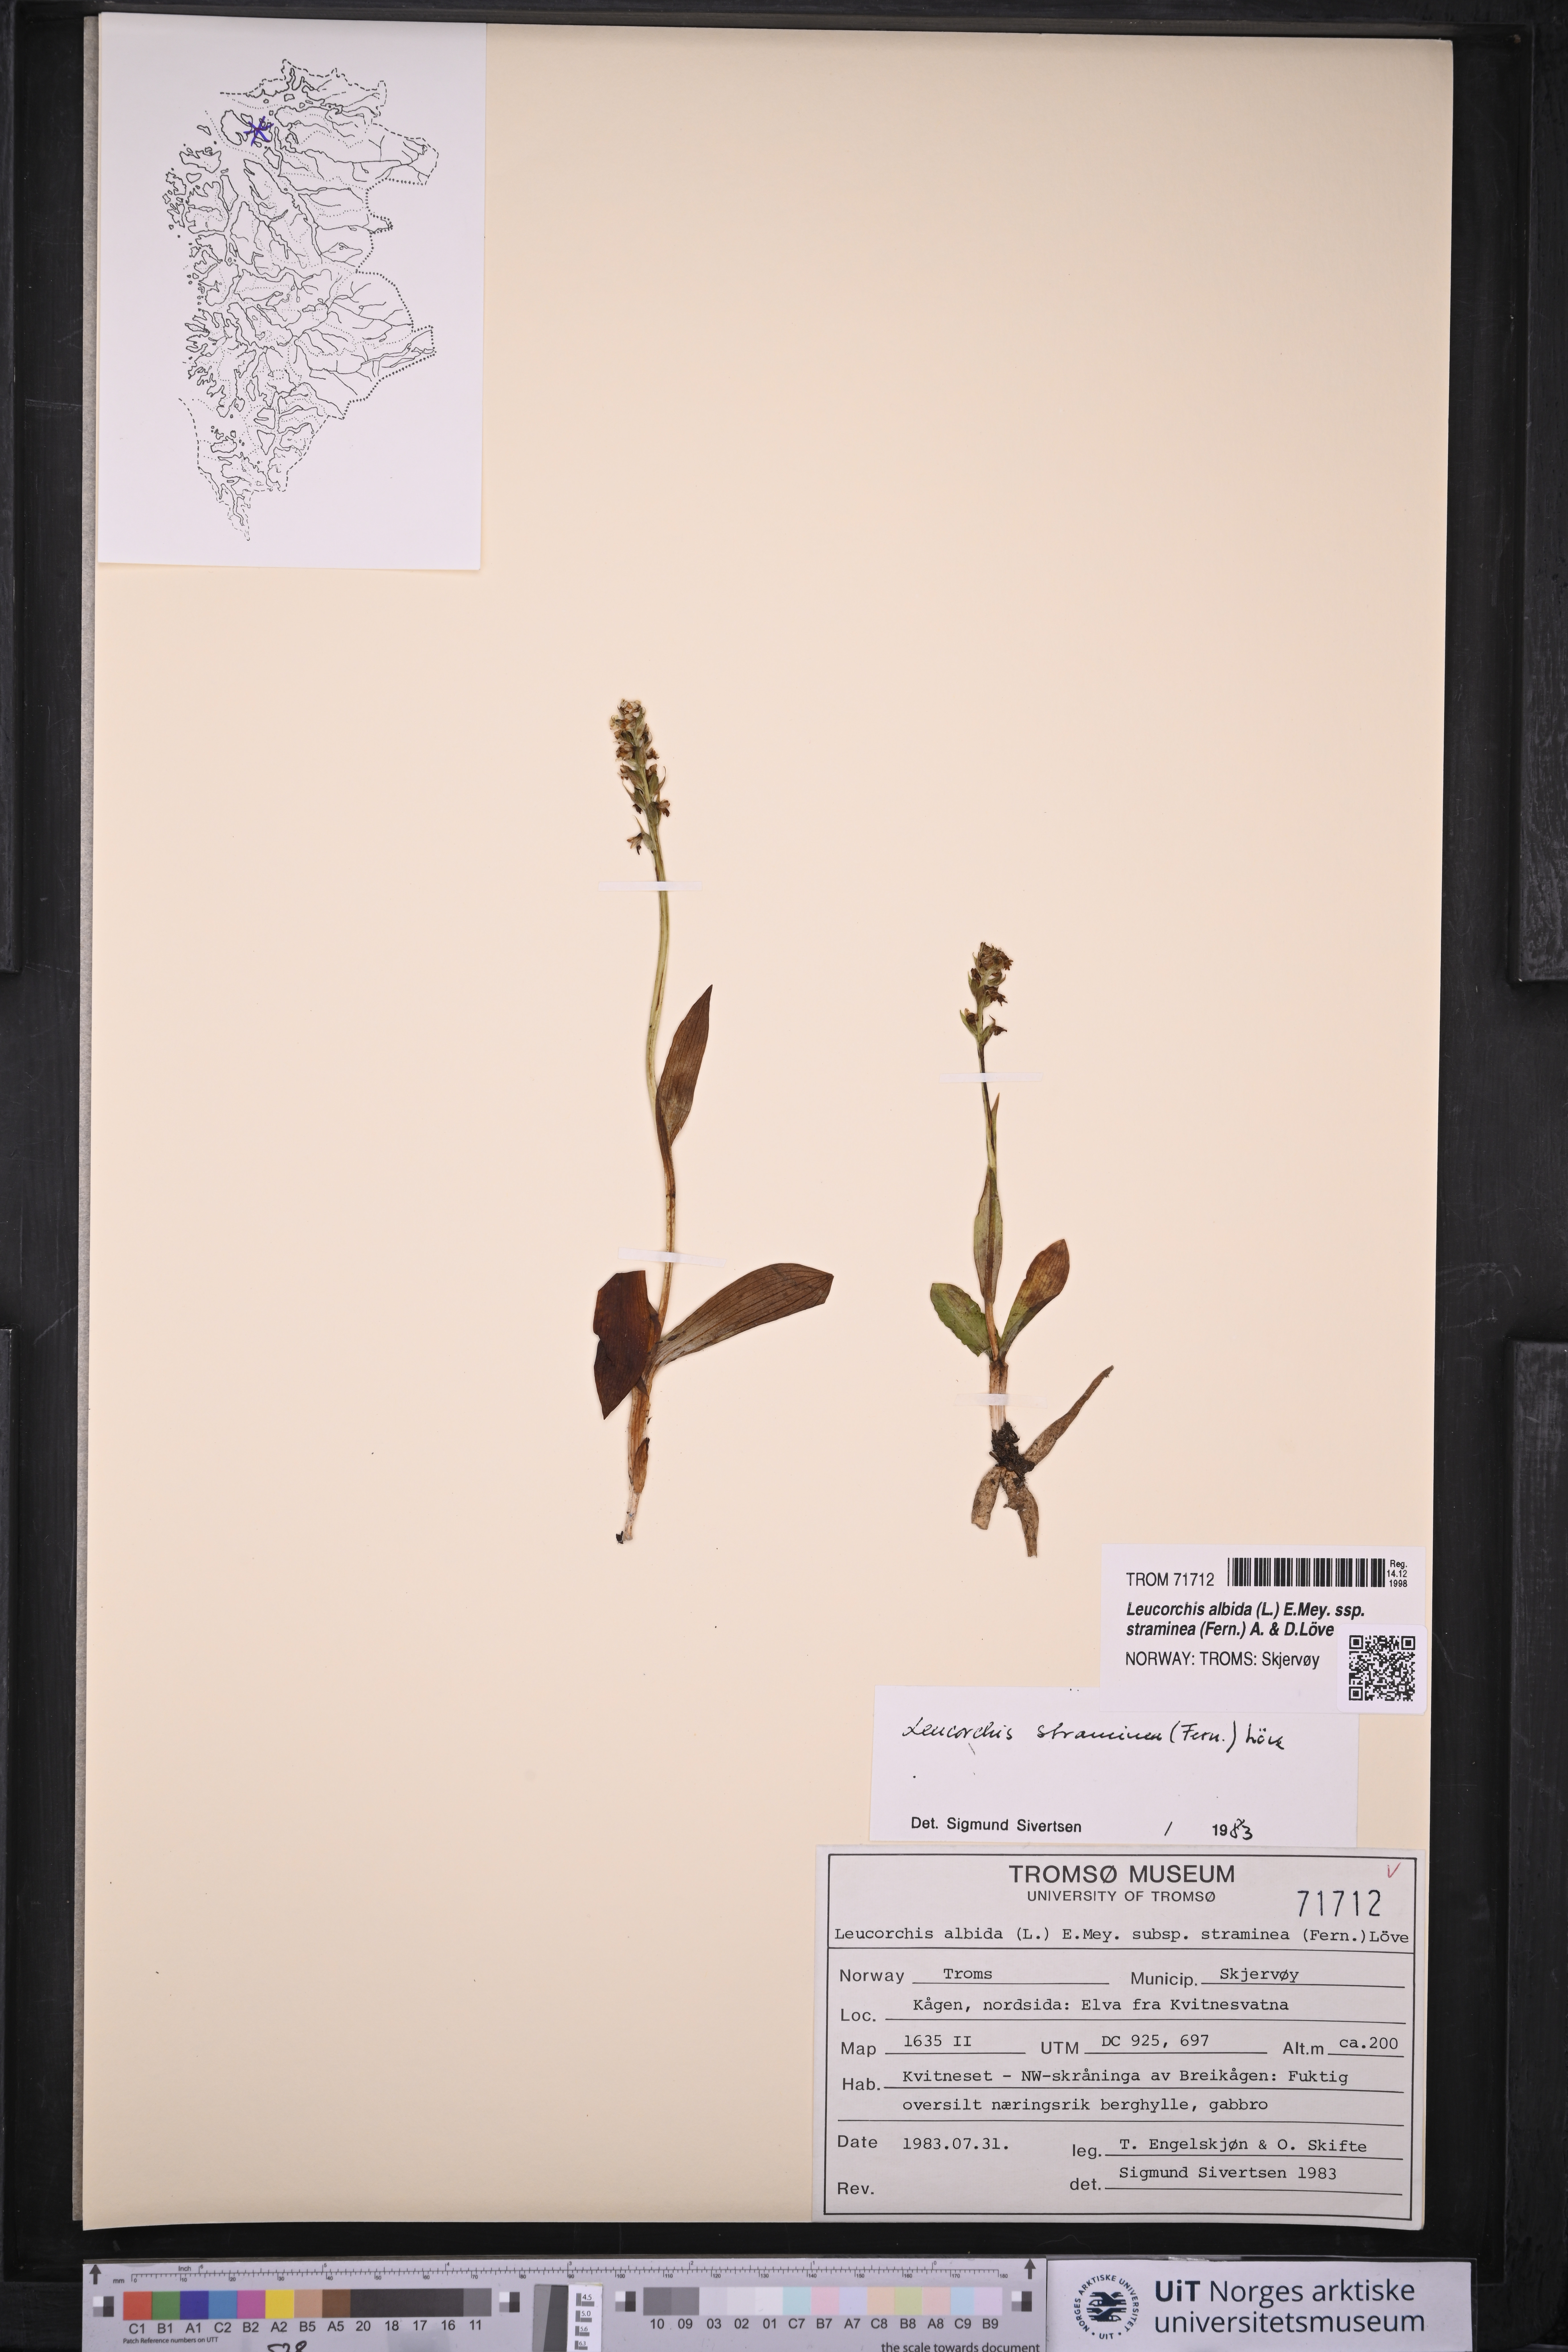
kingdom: Plantae
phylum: Tracheophyta
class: Liliopsida
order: Asparagales
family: Orchidaceae
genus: Pseudorchis
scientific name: Pseudorchis straminea
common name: Vanilla-scented bog orchid
